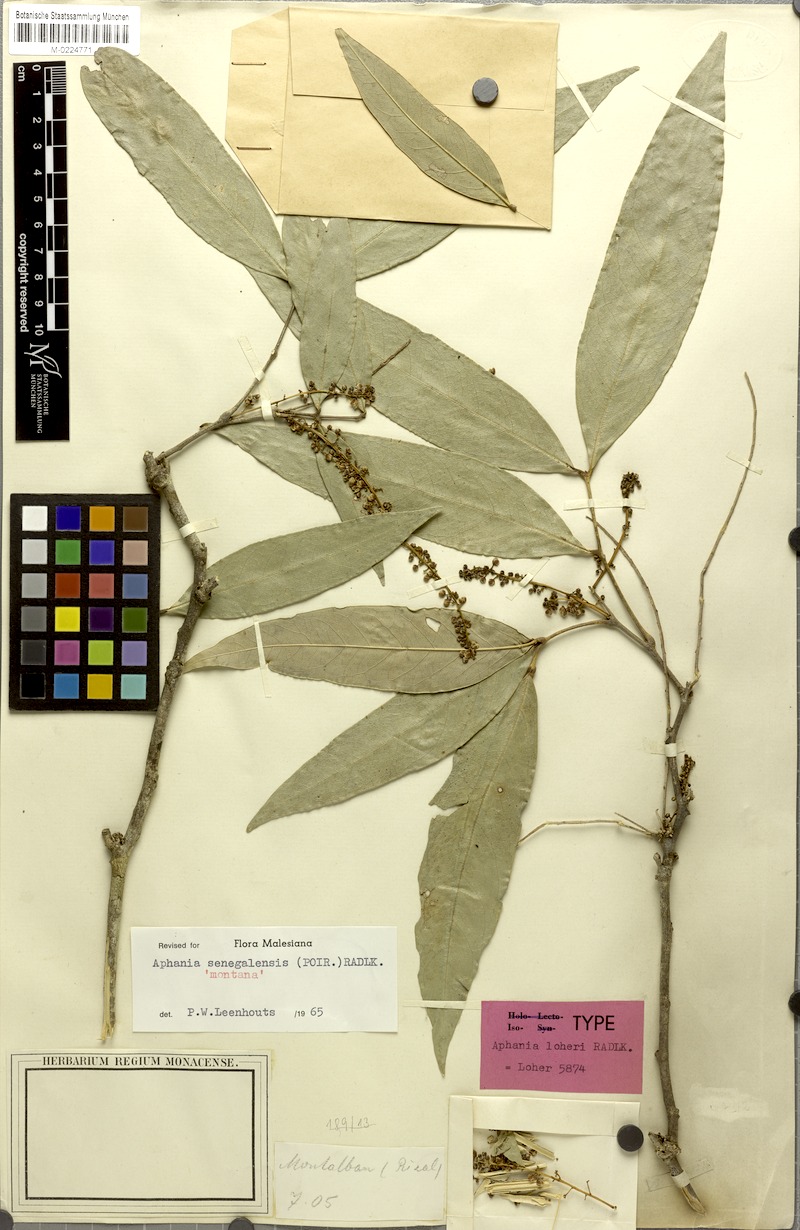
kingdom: Plantae
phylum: Tracheophyta
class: Magnoliopsida
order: Sapindales
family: Sapindaceae
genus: Lepisanthes
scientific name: Lepisanthes senegalensis
